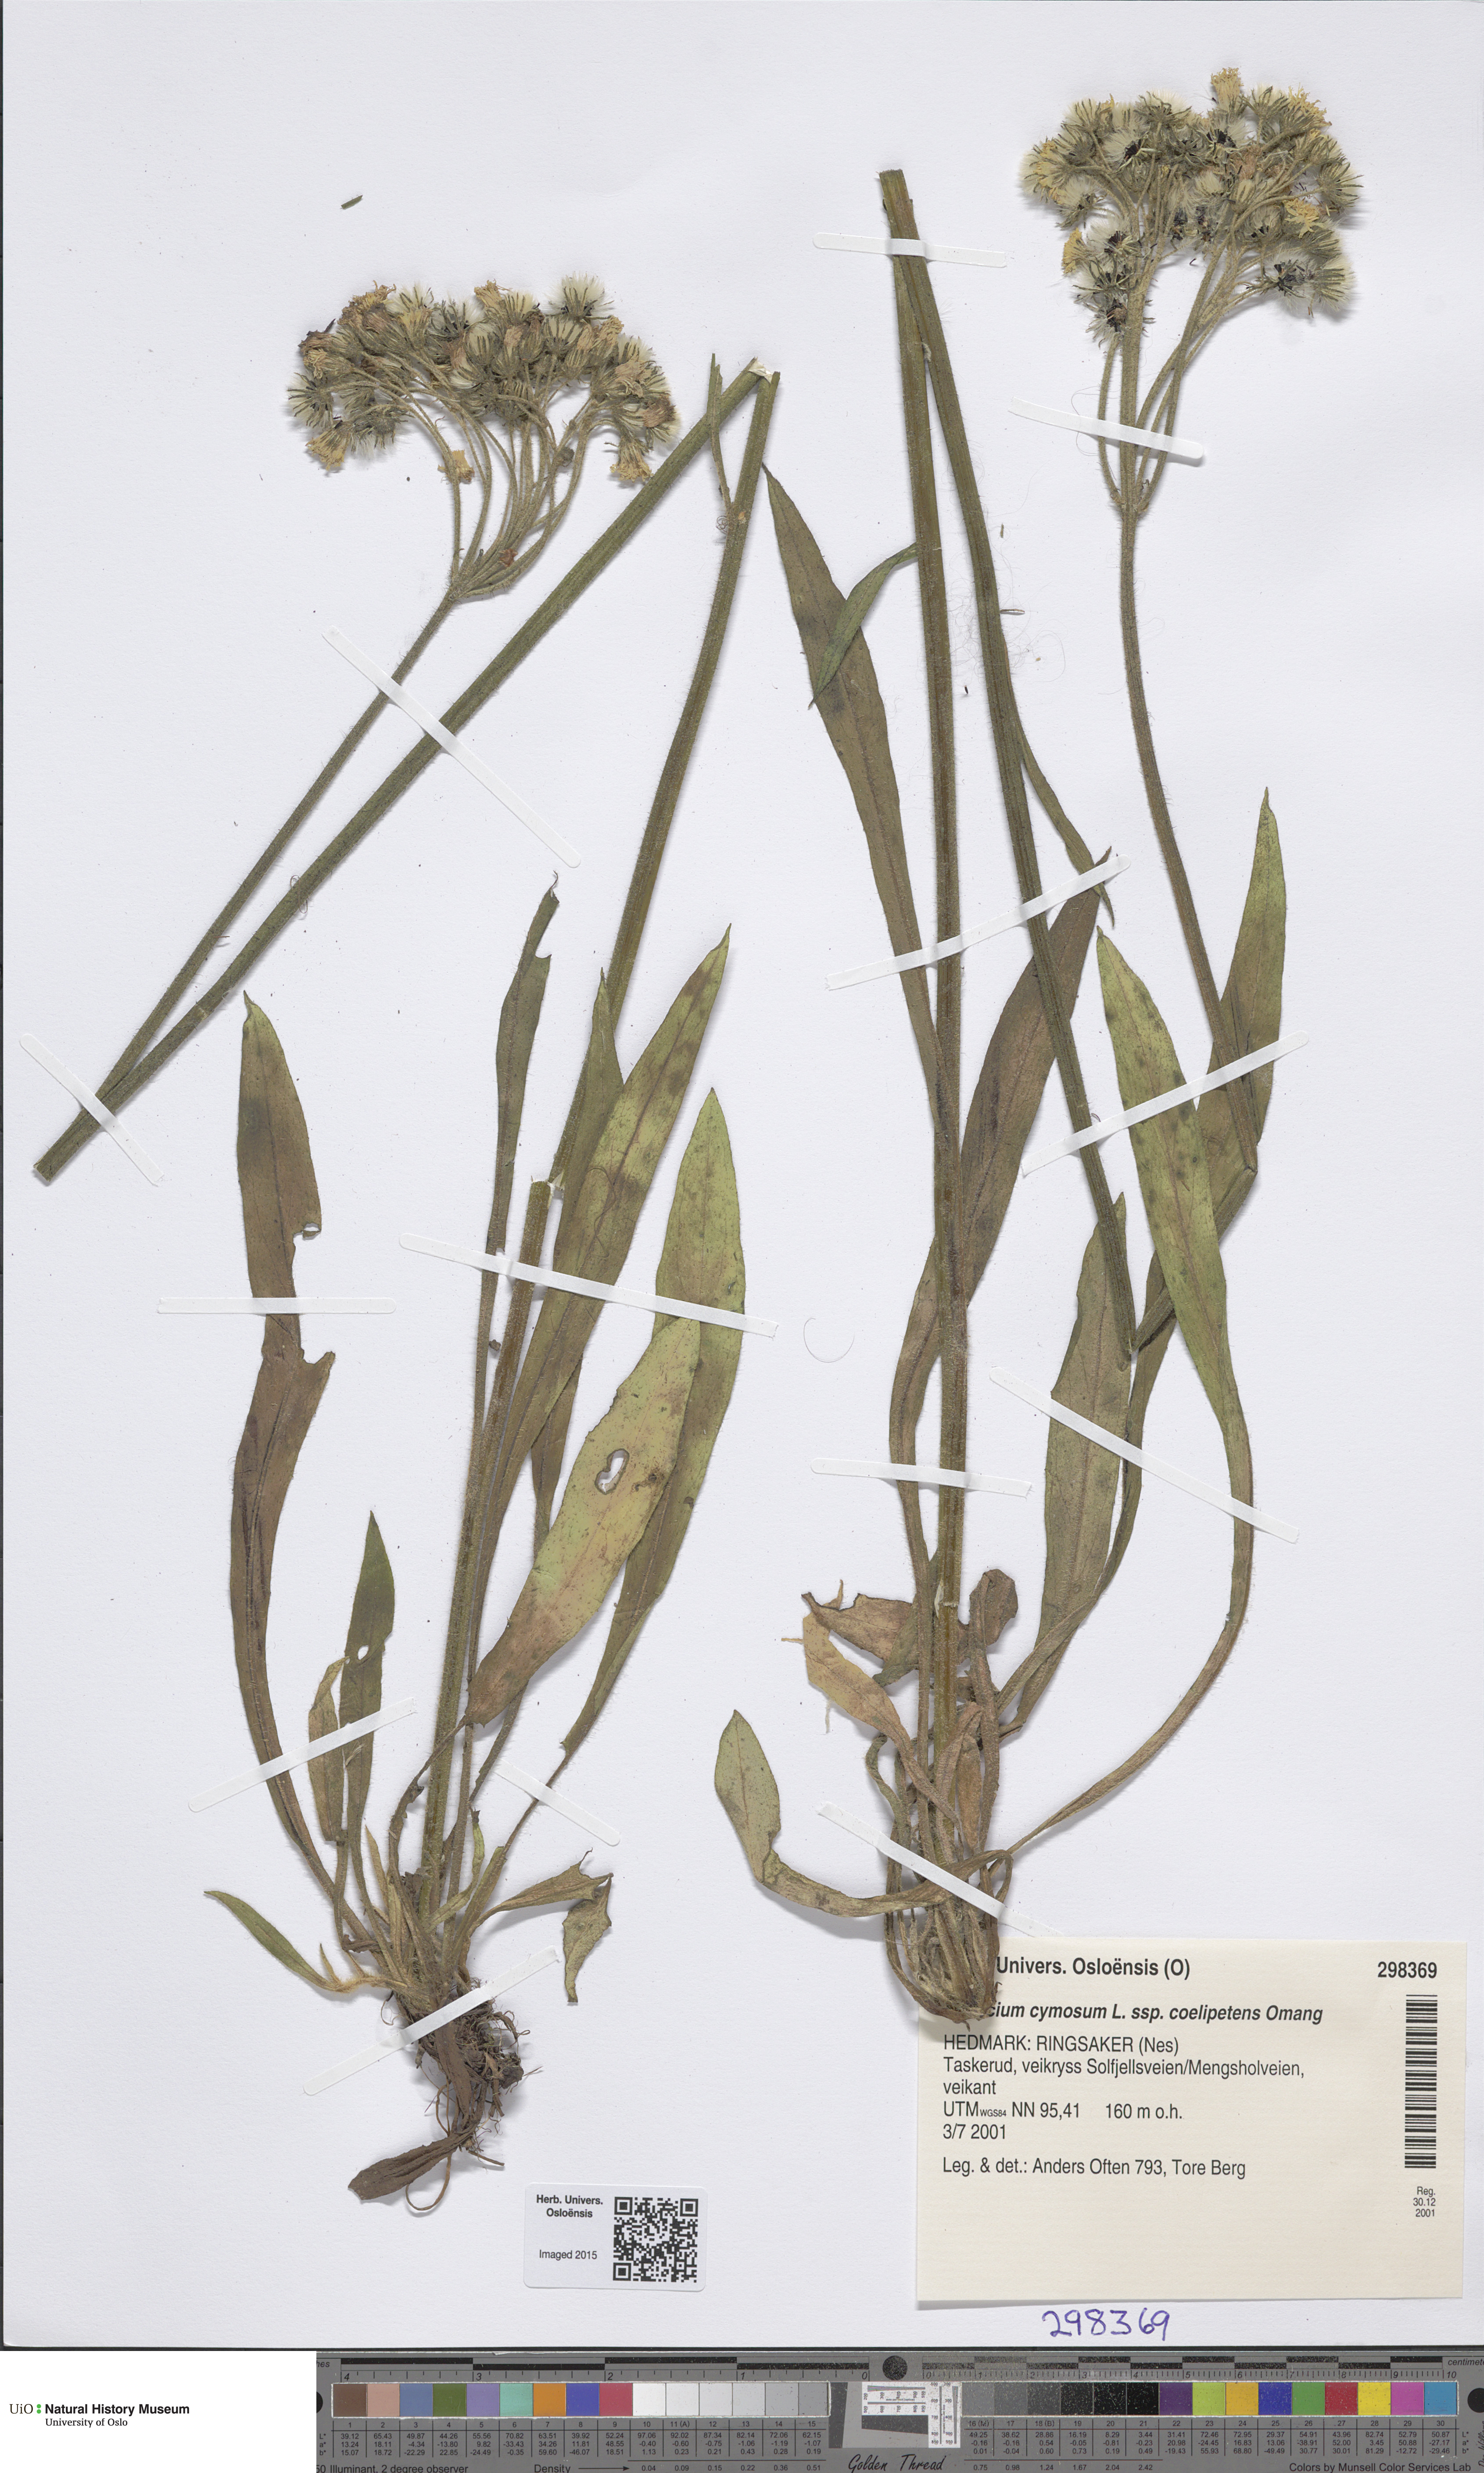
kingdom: Plantae
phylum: Tracheophyta
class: Magnoliopsida
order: Asterales
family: Asteraceae
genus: Pilosella
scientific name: Pilosella cymosa
